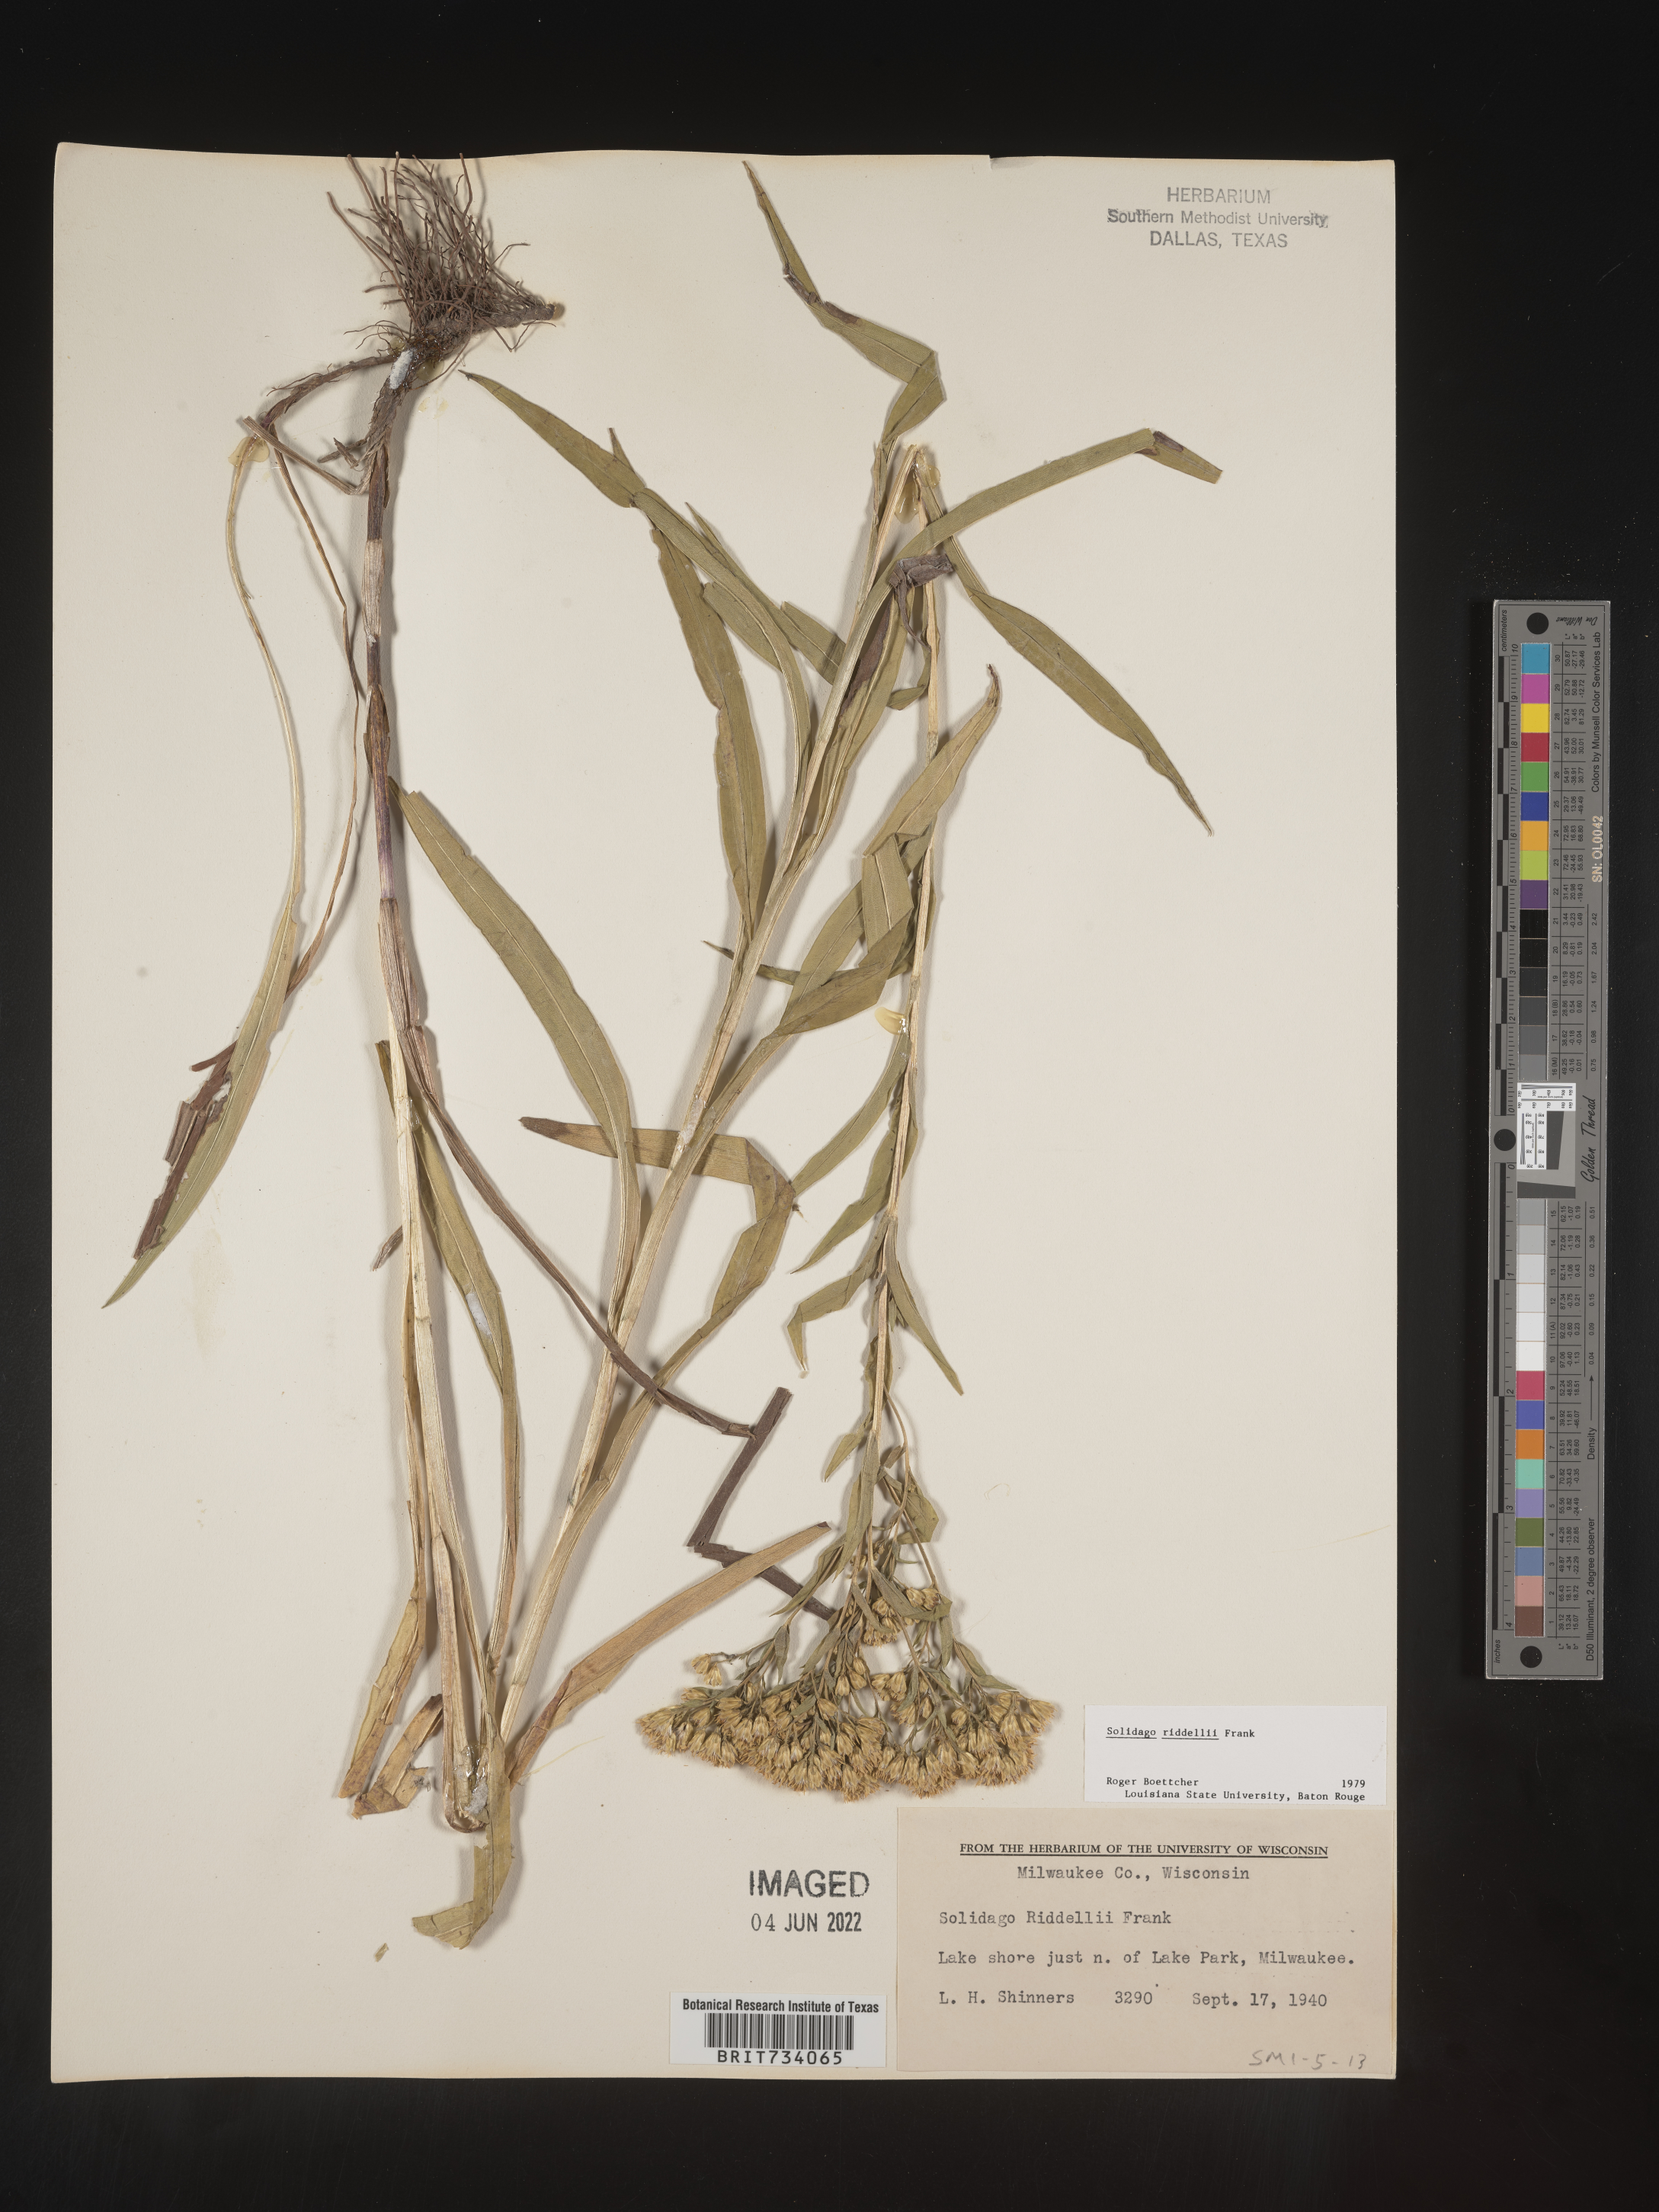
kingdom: Plantae
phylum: Tracheophyta
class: Magnoliopsida
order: Asterales
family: Asteraceae
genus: Solidago
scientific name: Solidago riddellii
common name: Riddell's goldenrod
